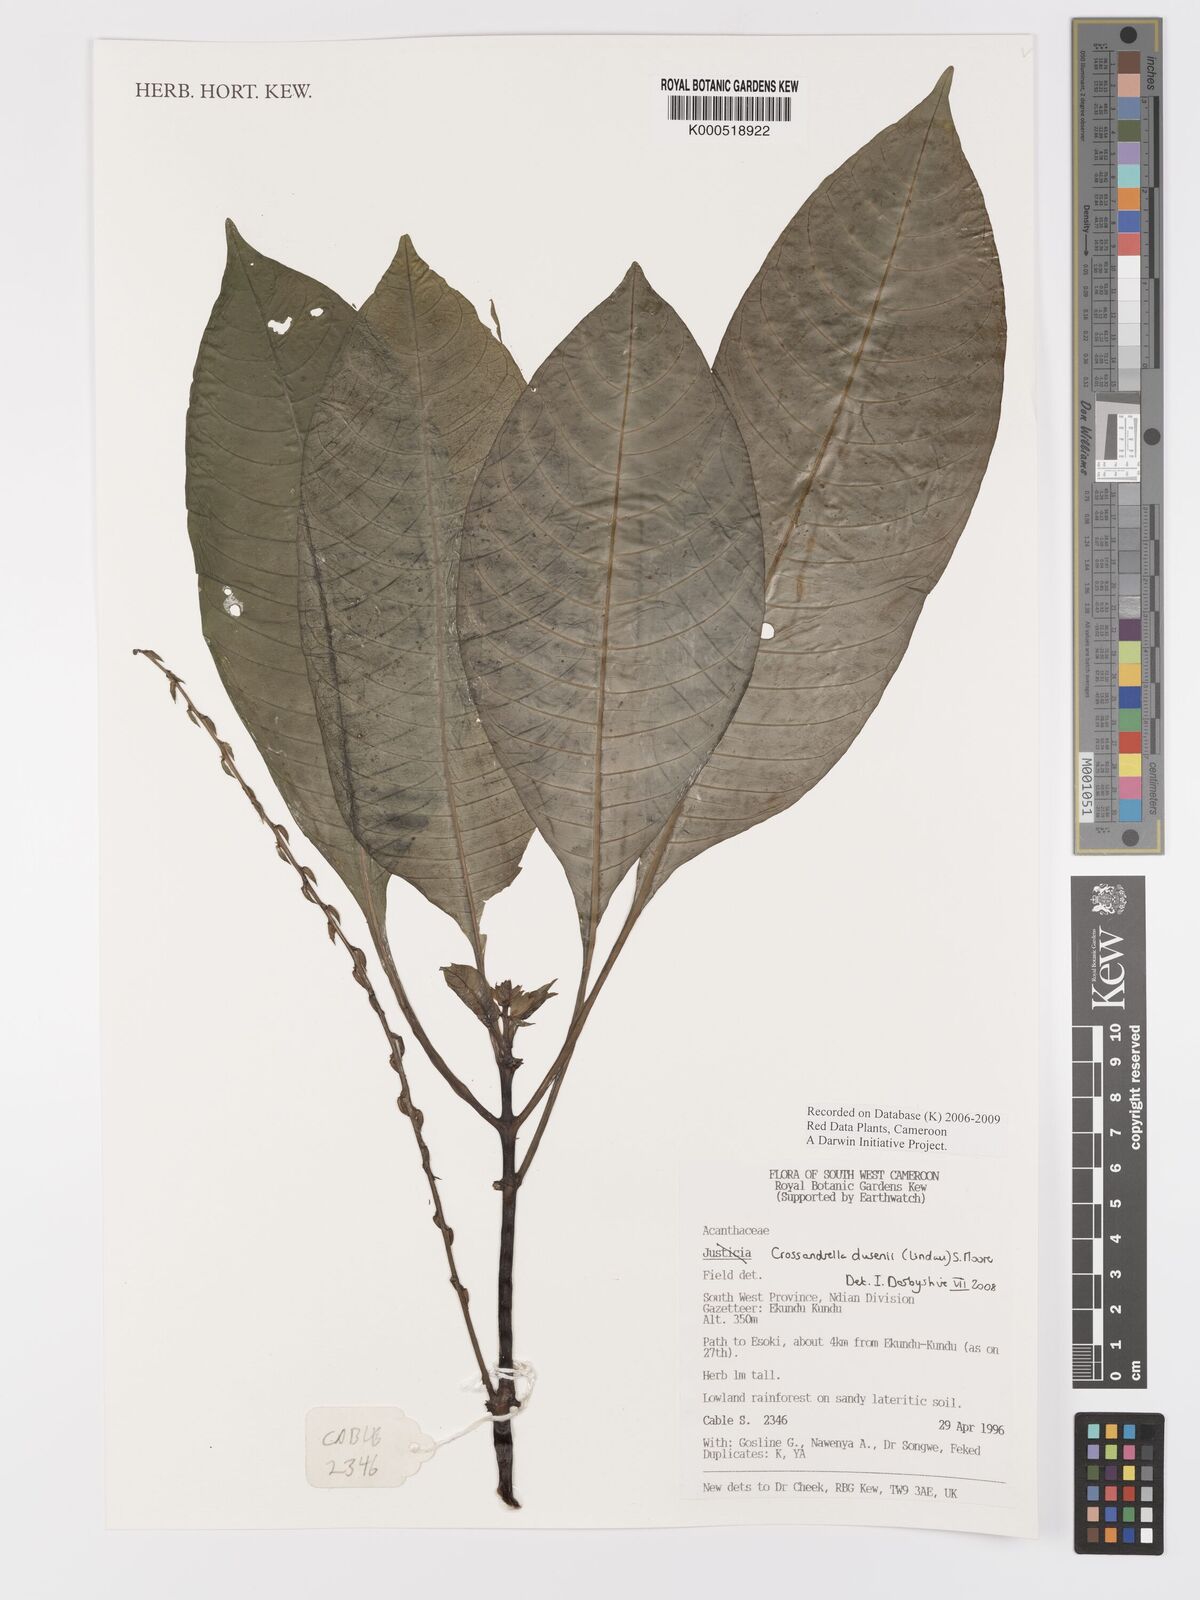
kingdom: Plantae
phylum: Tracheophyta
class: Magnoliopsida
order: Lamiales
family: Acanthaceae
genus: Crossandrella
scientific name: Crossandrella dusenii
